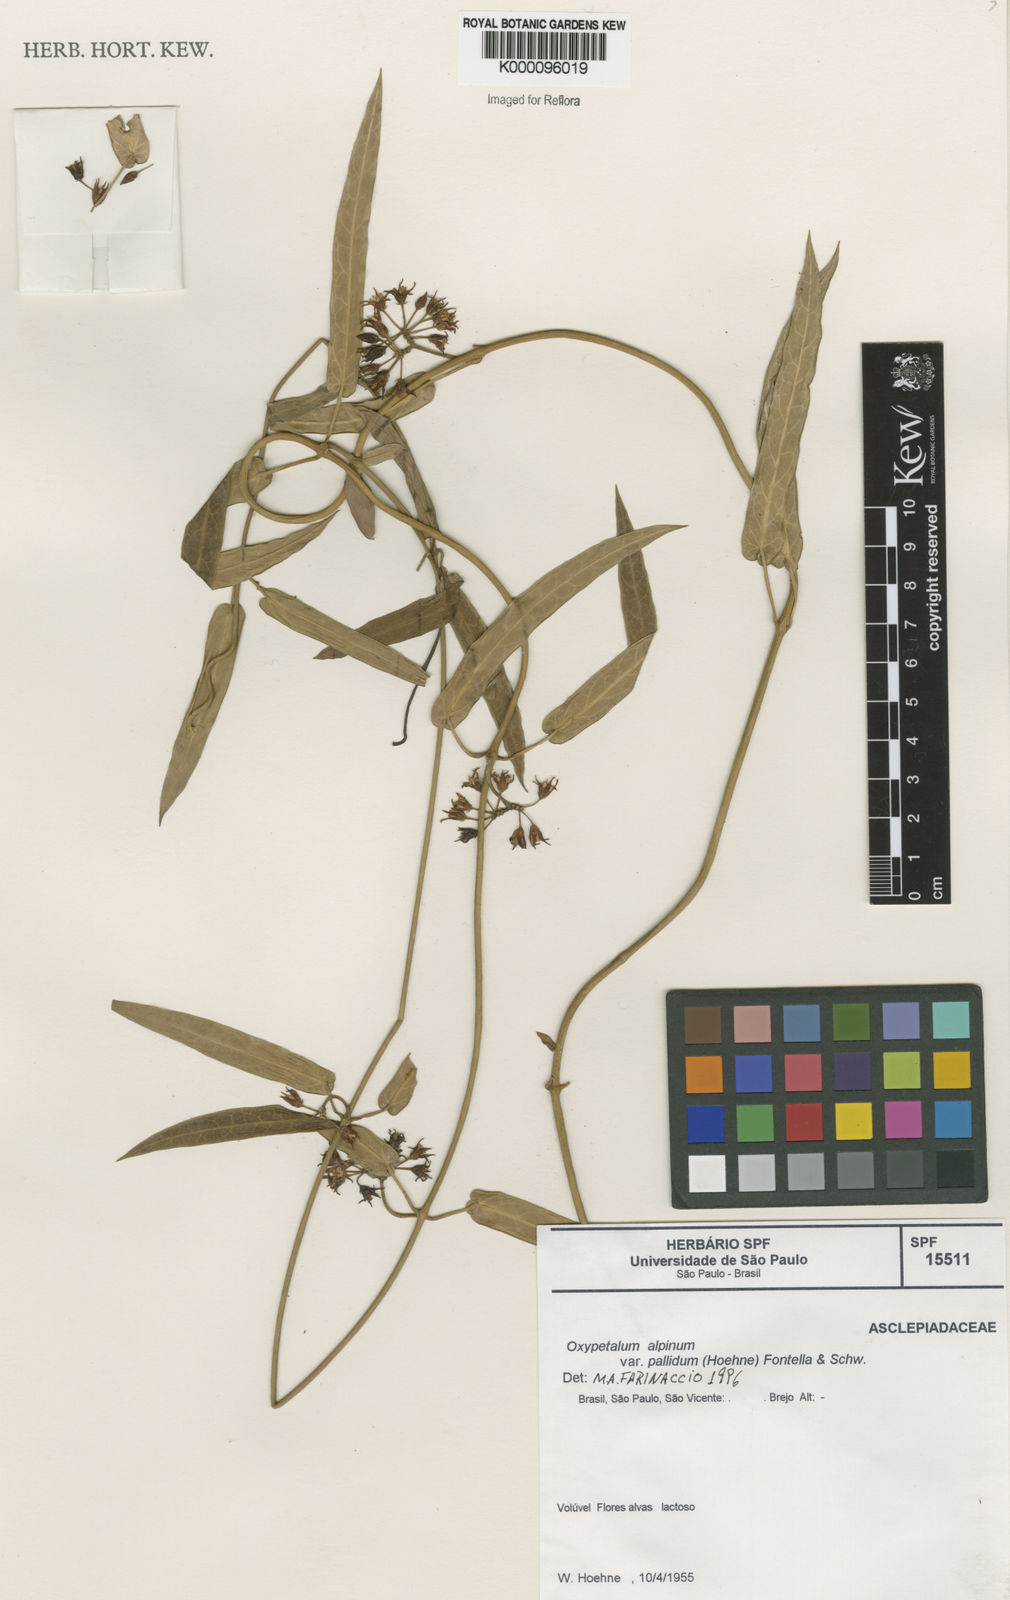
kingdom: Plantae
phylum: Tracheophyta
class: Magnoliopsida
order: Gentianales
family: Apocynaceae
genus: Oxypetalum
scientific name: Oxypetalum alpinum
